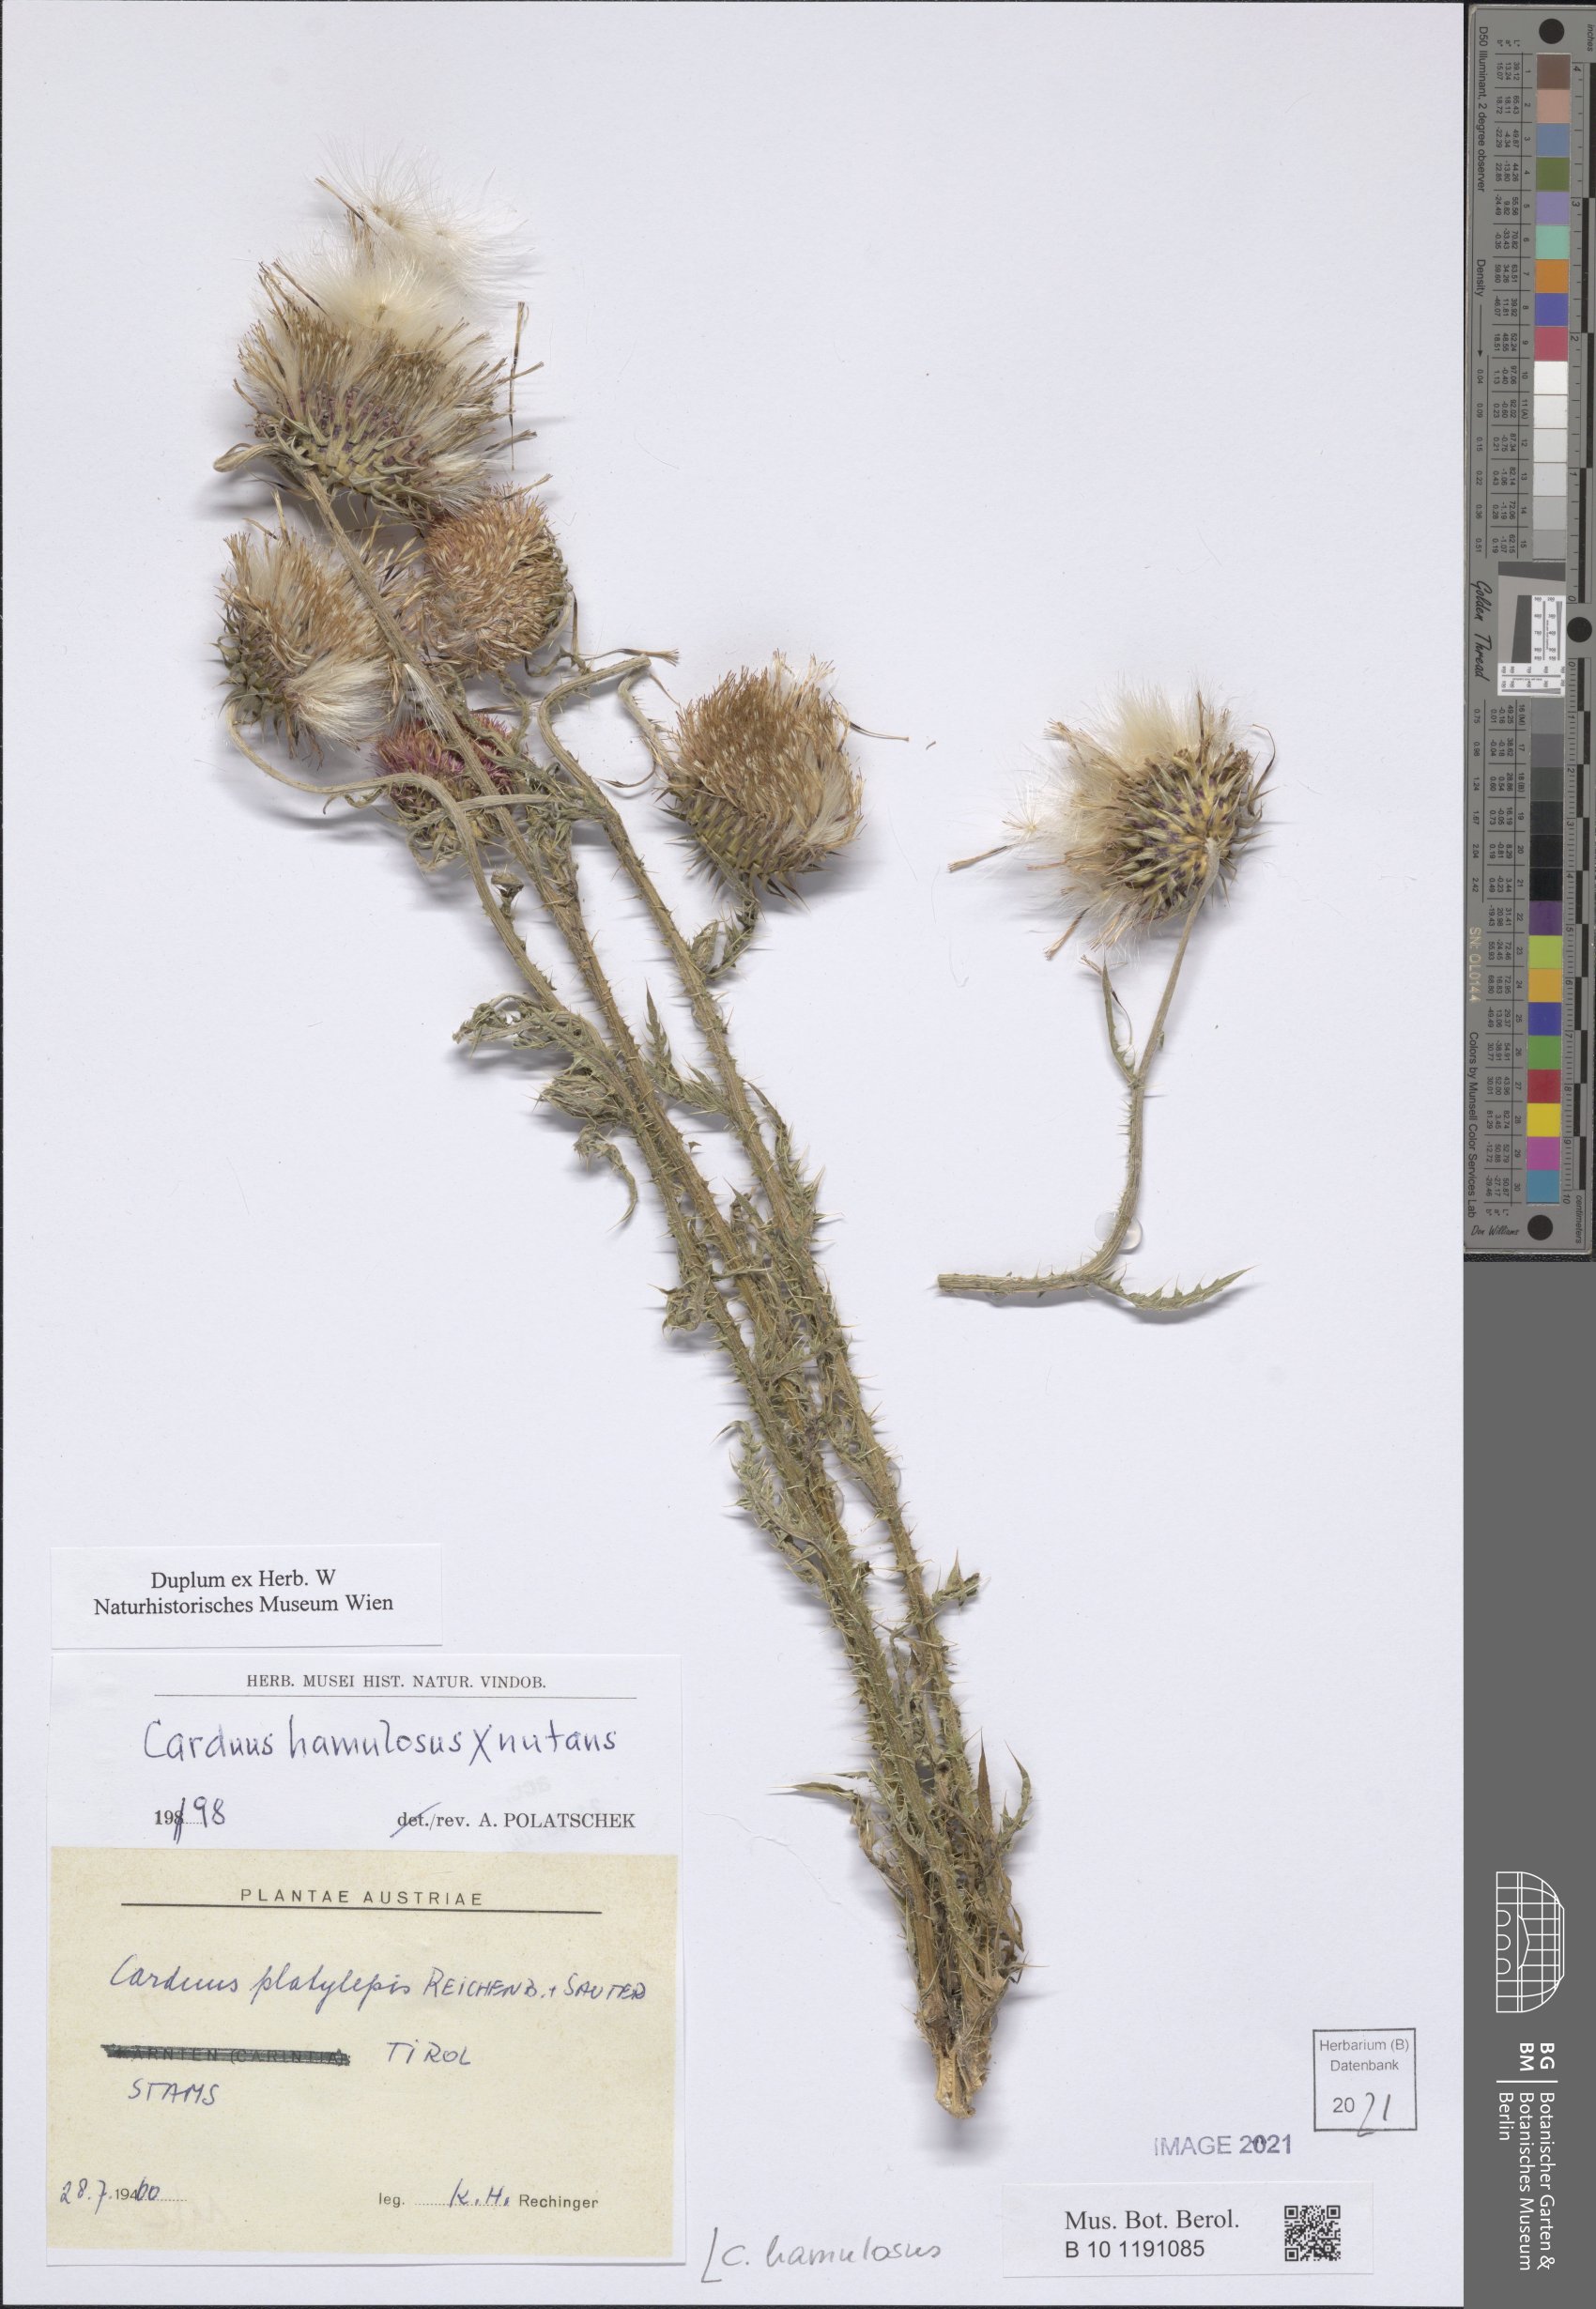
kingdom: Plantae
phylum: Tracheophyta
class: Magnoliopsida
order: Asterales
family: Asteraceae
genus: Carduus
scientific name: Carduus hamulosus
